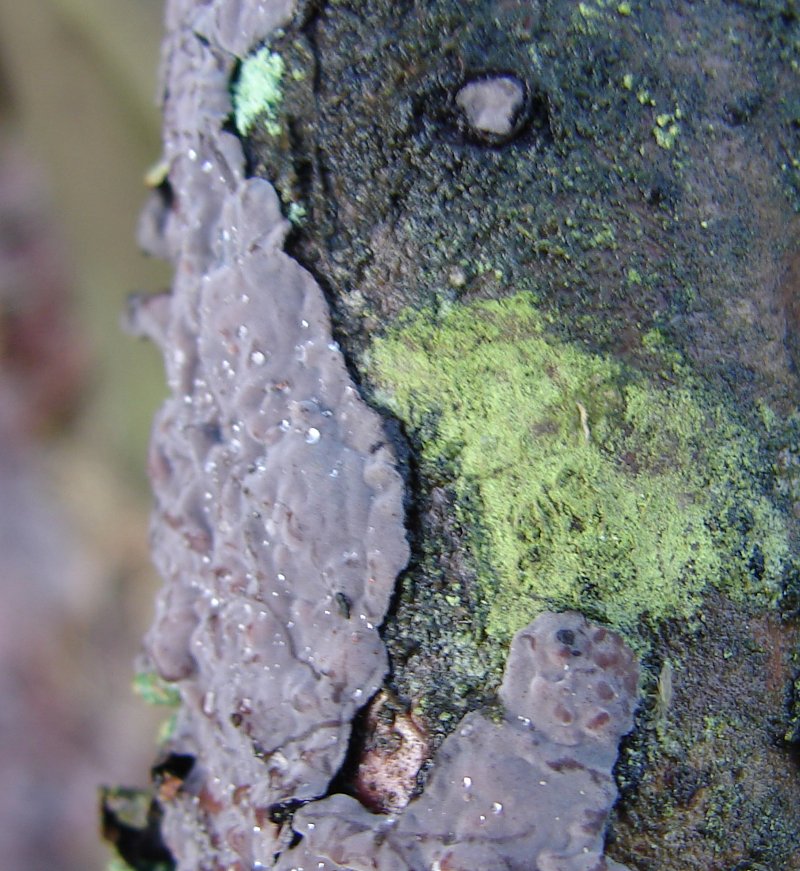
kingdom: Fungi
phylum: Basidiomycota
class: Agaricomycetes
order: Russulales
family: Peniophoraceae
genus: Peniophora
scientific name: Peniophora quercina
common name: ege-voksskind
